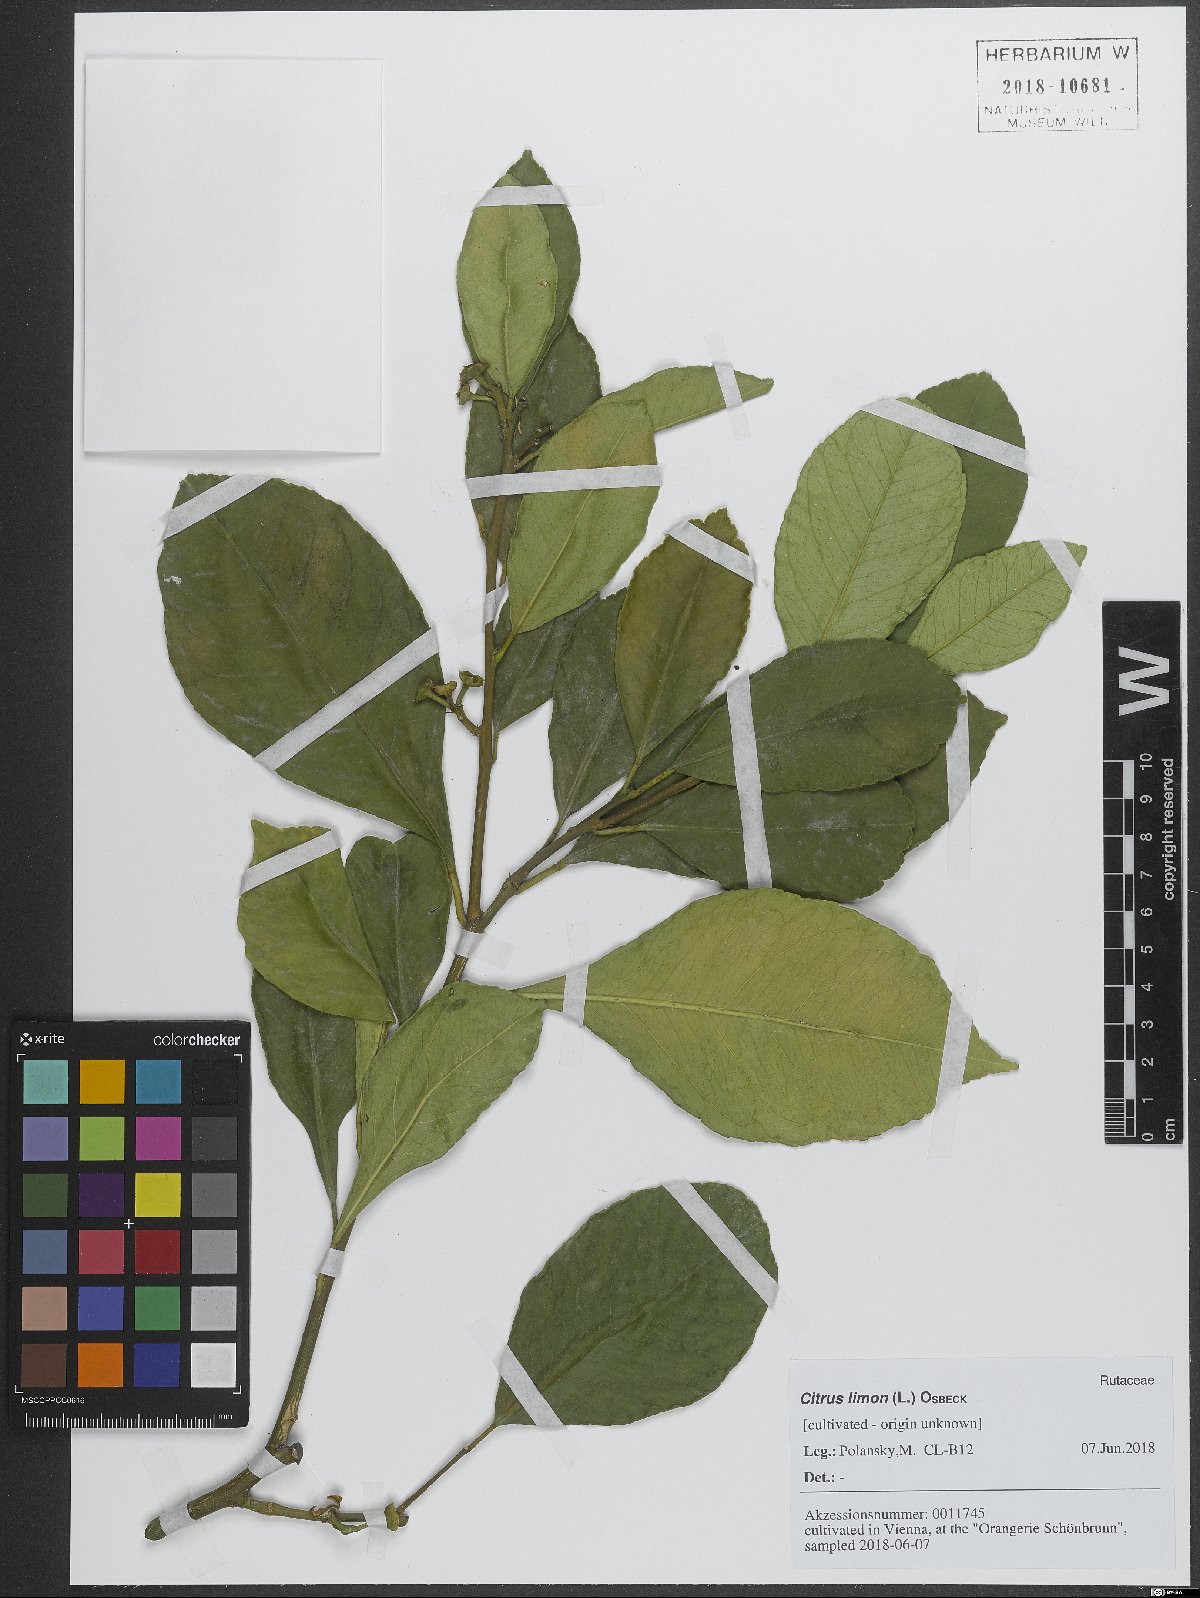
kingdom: Plantae
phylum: Tracheophyta
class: Magnoliopsida
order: Sapindales
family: Rutaceae
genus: Citrus
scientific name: Citrus limon
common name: Lemon
